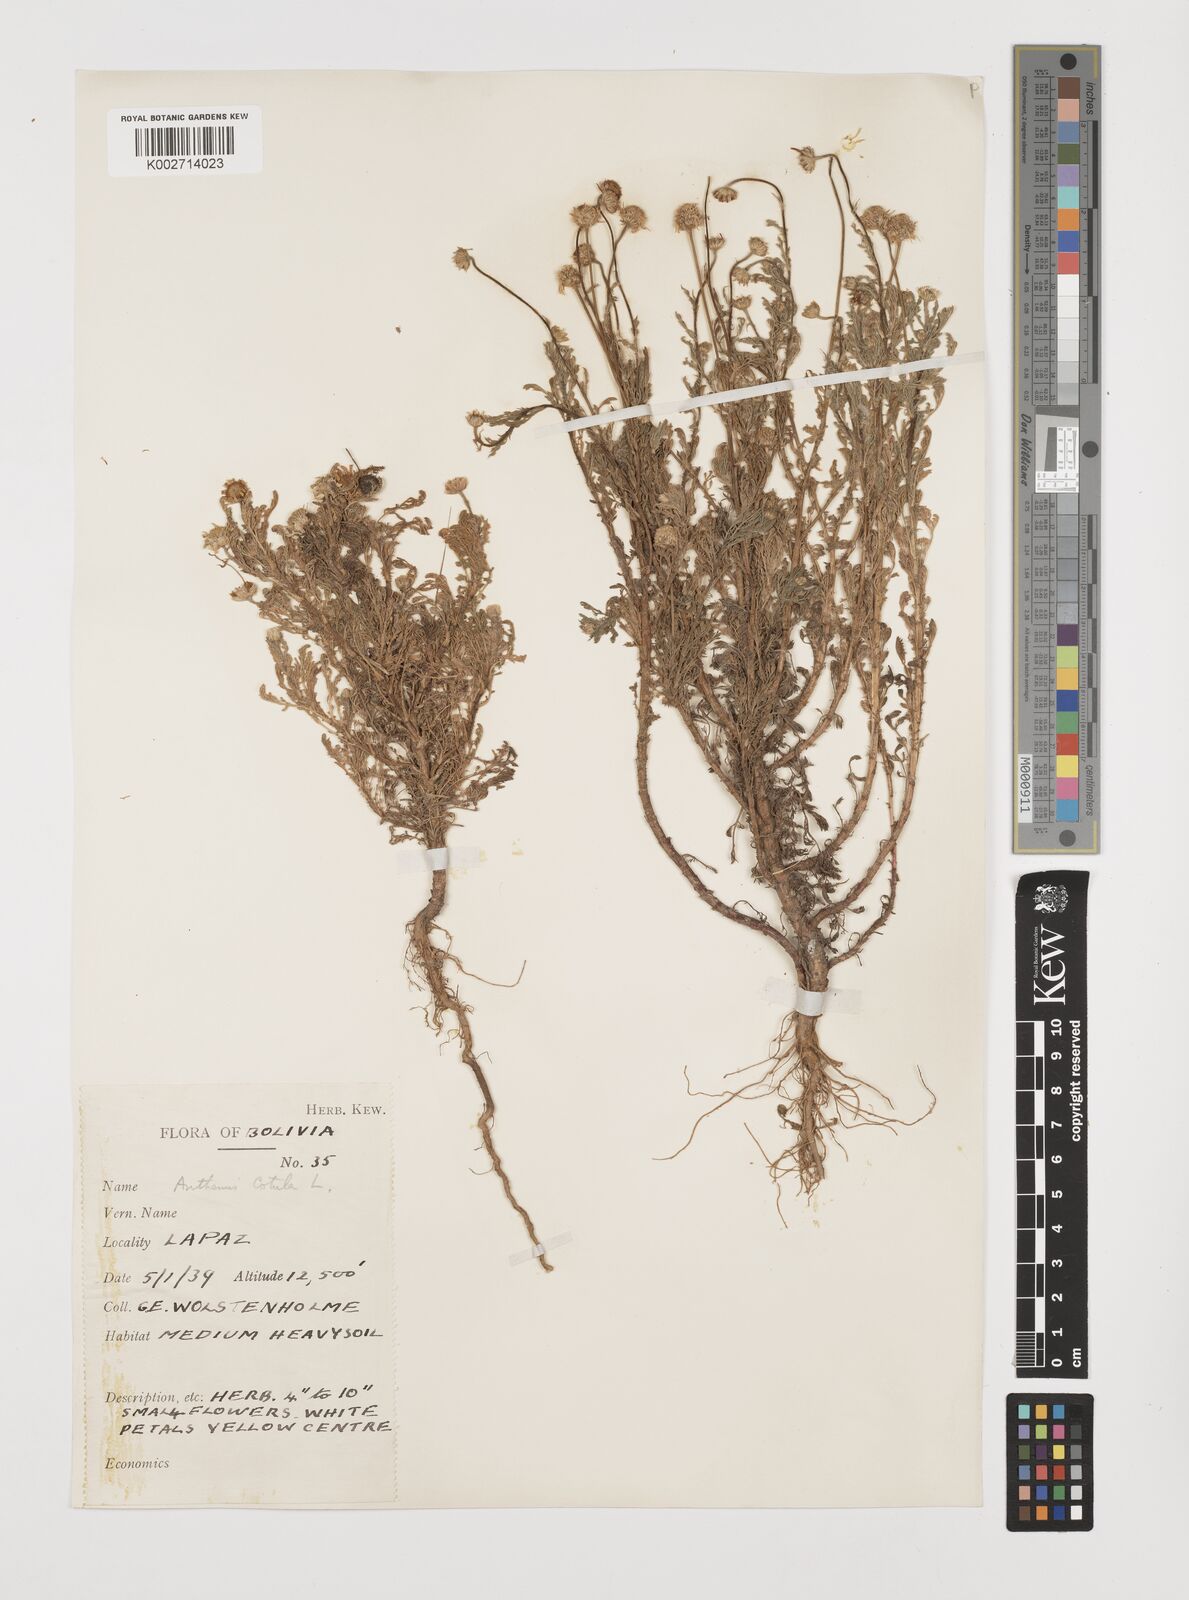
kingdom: Plantae
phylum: Tracheophyta
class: Magnoliopsida
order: Asterales
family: Asteraceae
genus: Anthemis
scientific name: Anthemis cotula
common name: Stinking chamomile
